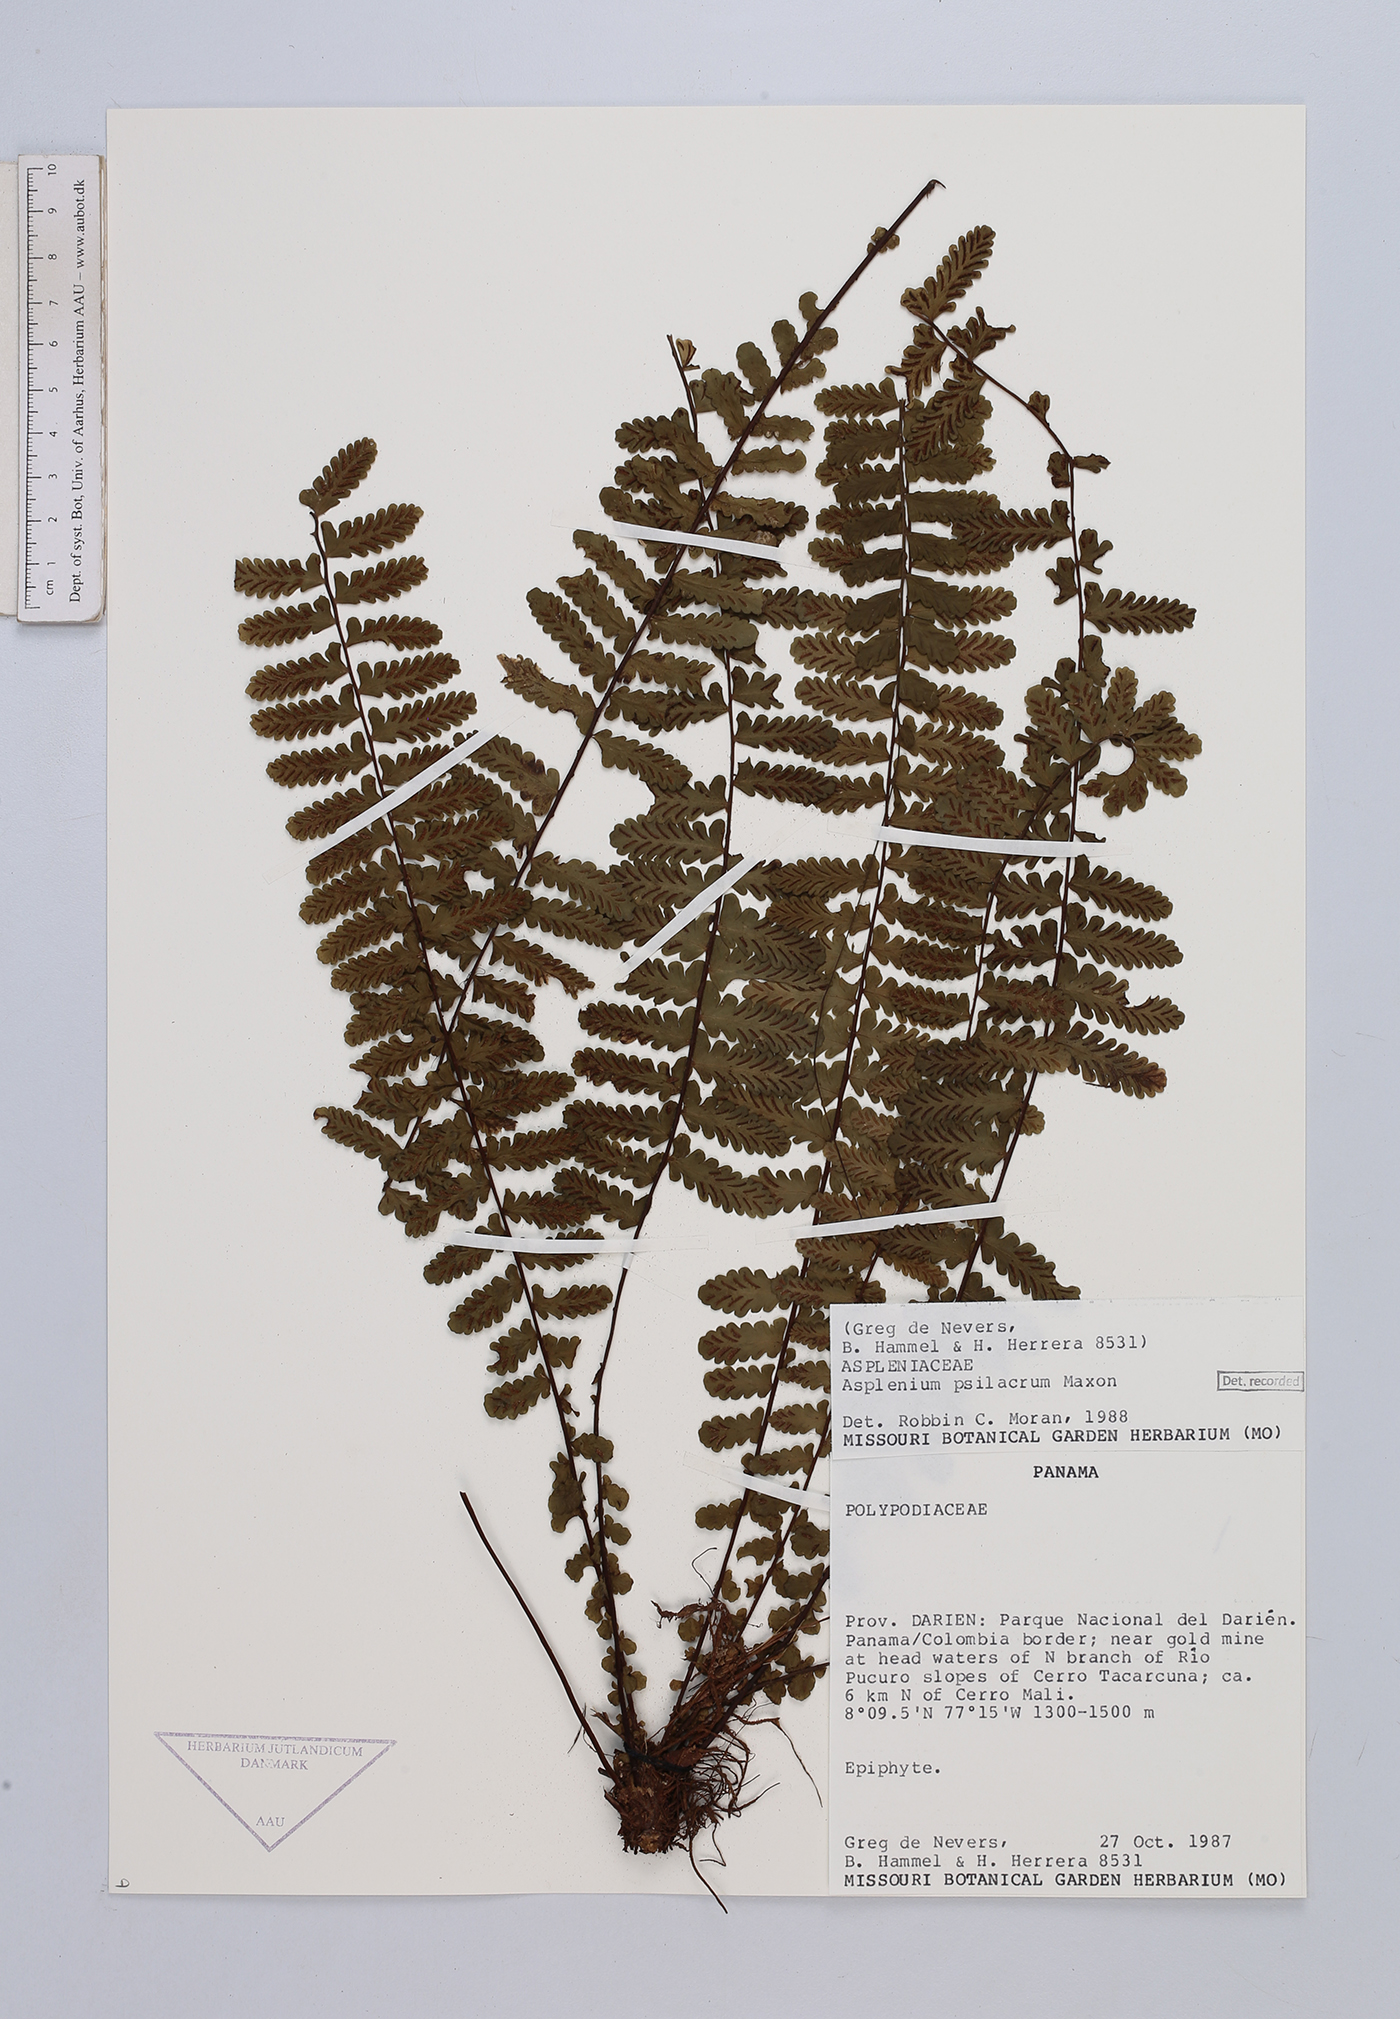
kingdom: Plantae
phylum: Tracheophyta
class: Polypodiopsida
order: Polypodiales
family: Aspleniaceae
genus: Asplenium
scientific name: Asplenium oblongatum
